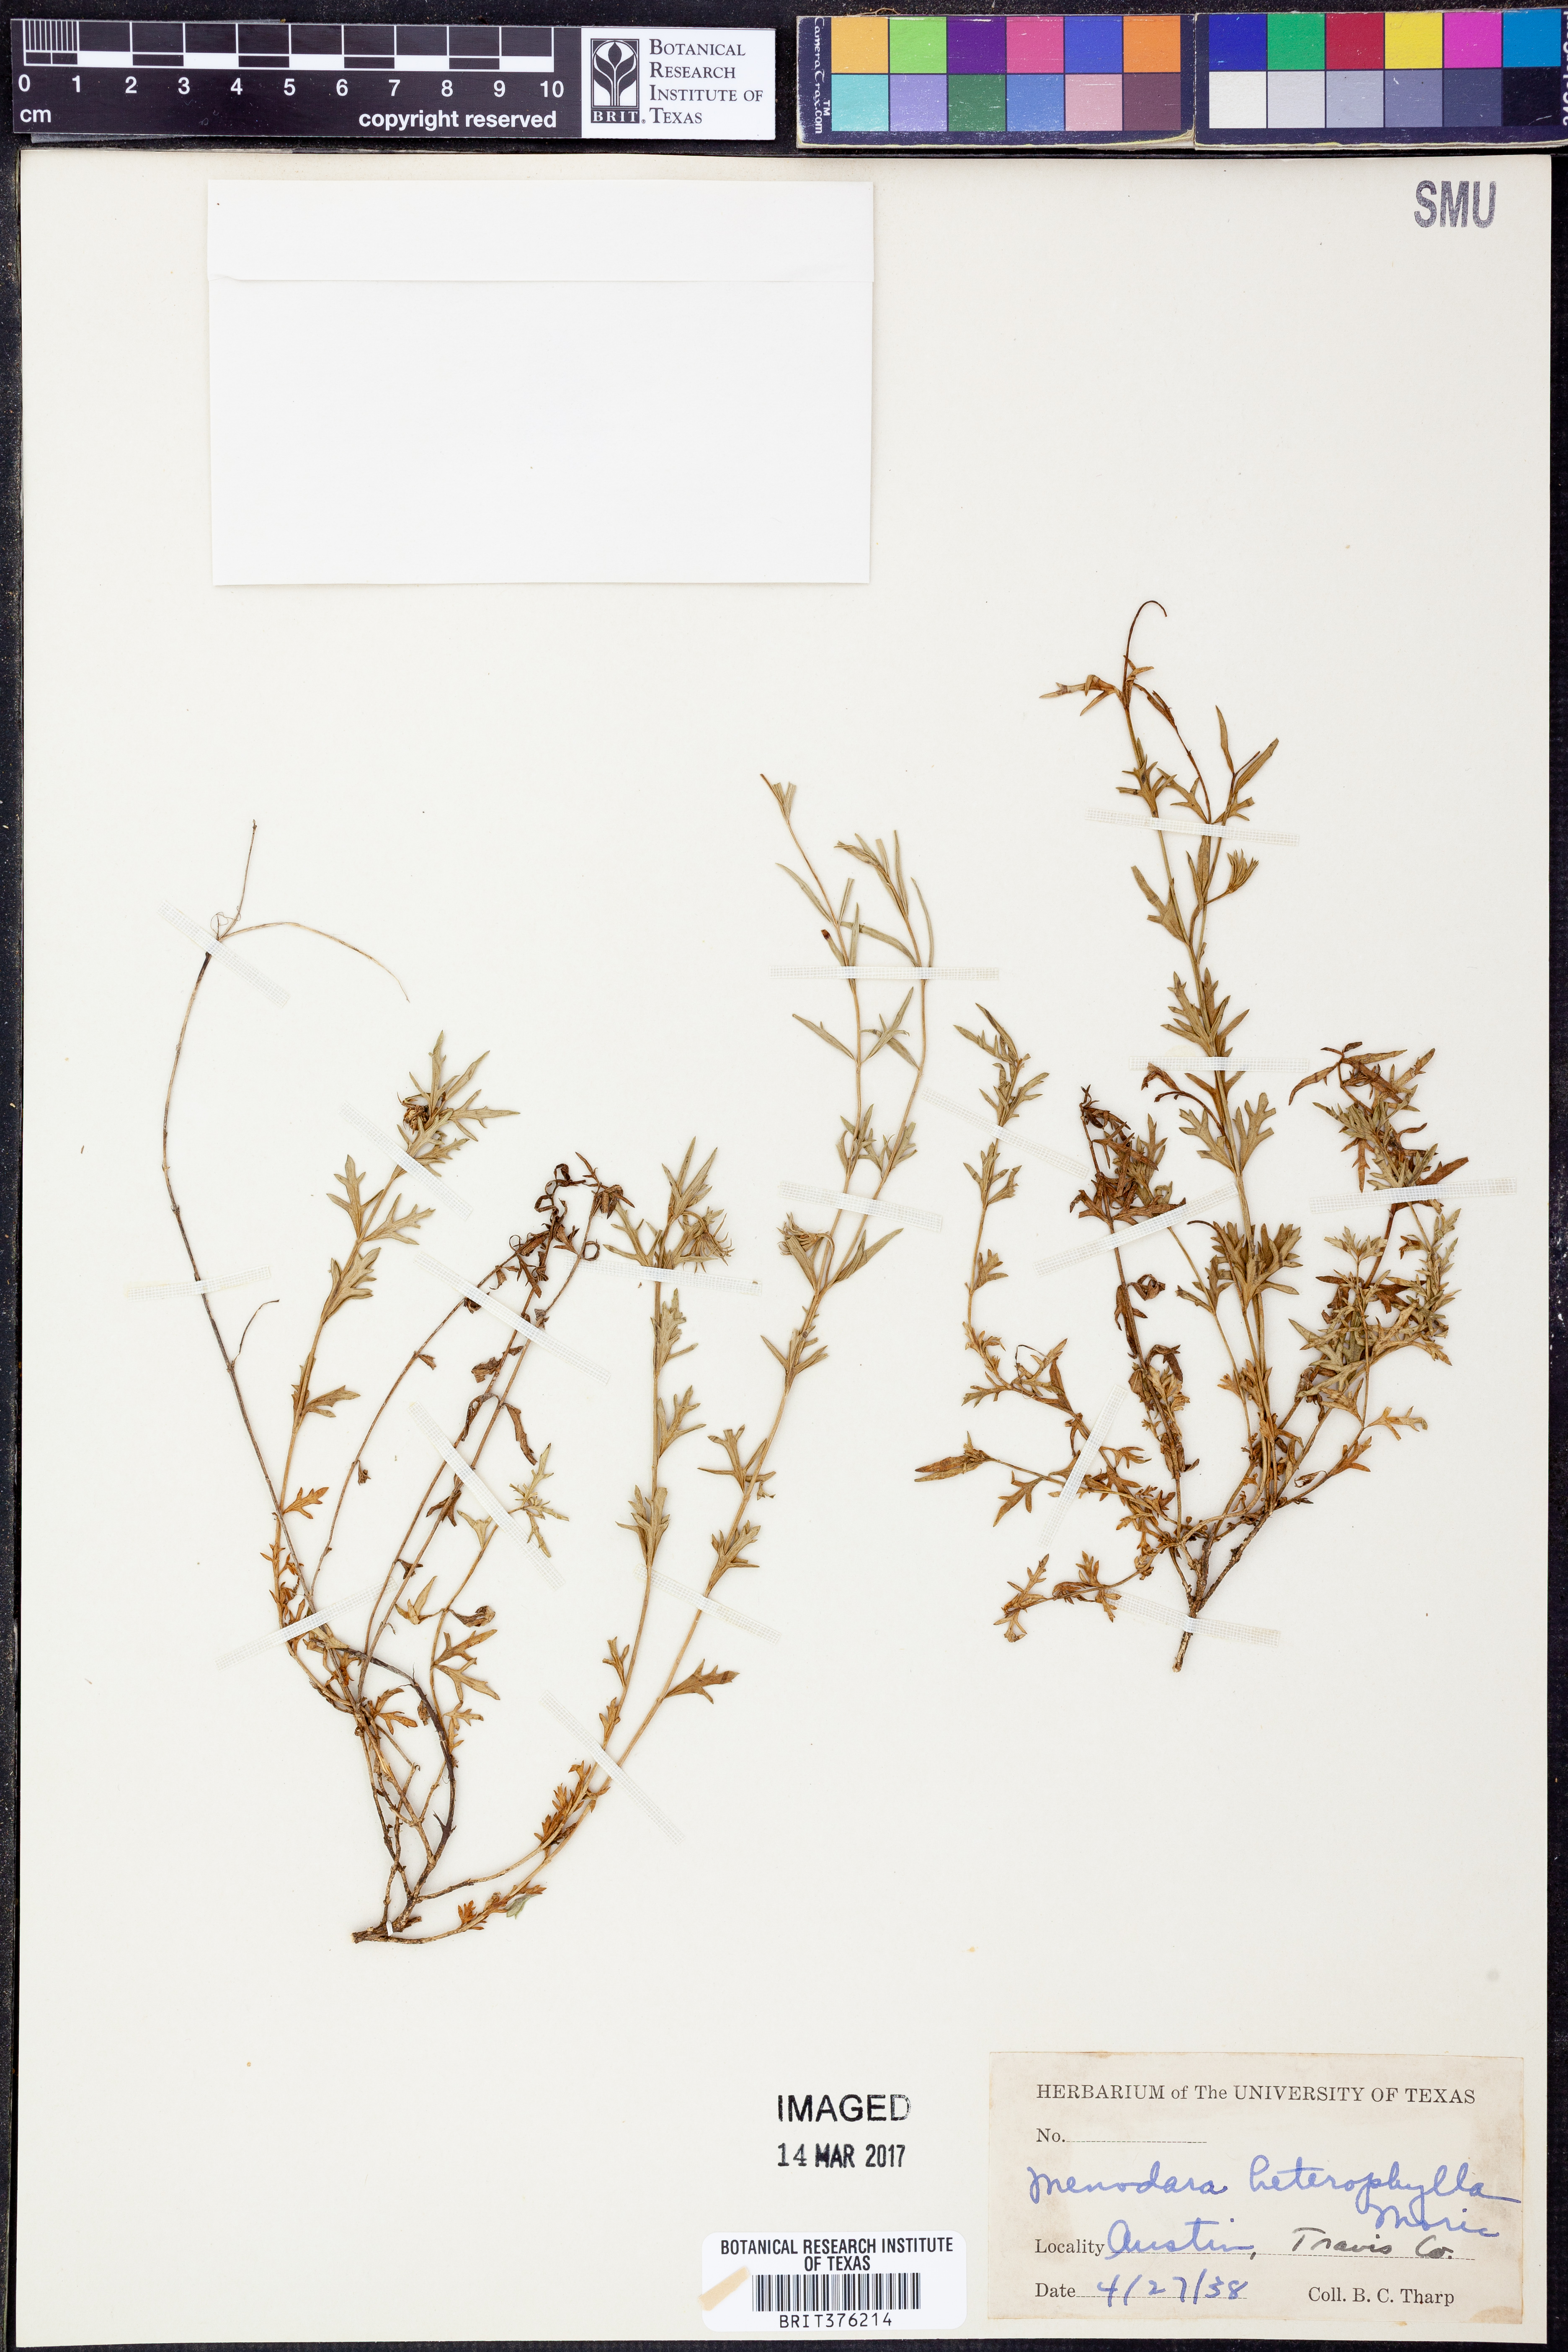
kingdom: Plantae
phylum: Tracheophyta
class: Magnoliopsida
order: Lamiales
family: Oleaceae
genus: Menodora
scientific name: Menodora heterophylla
